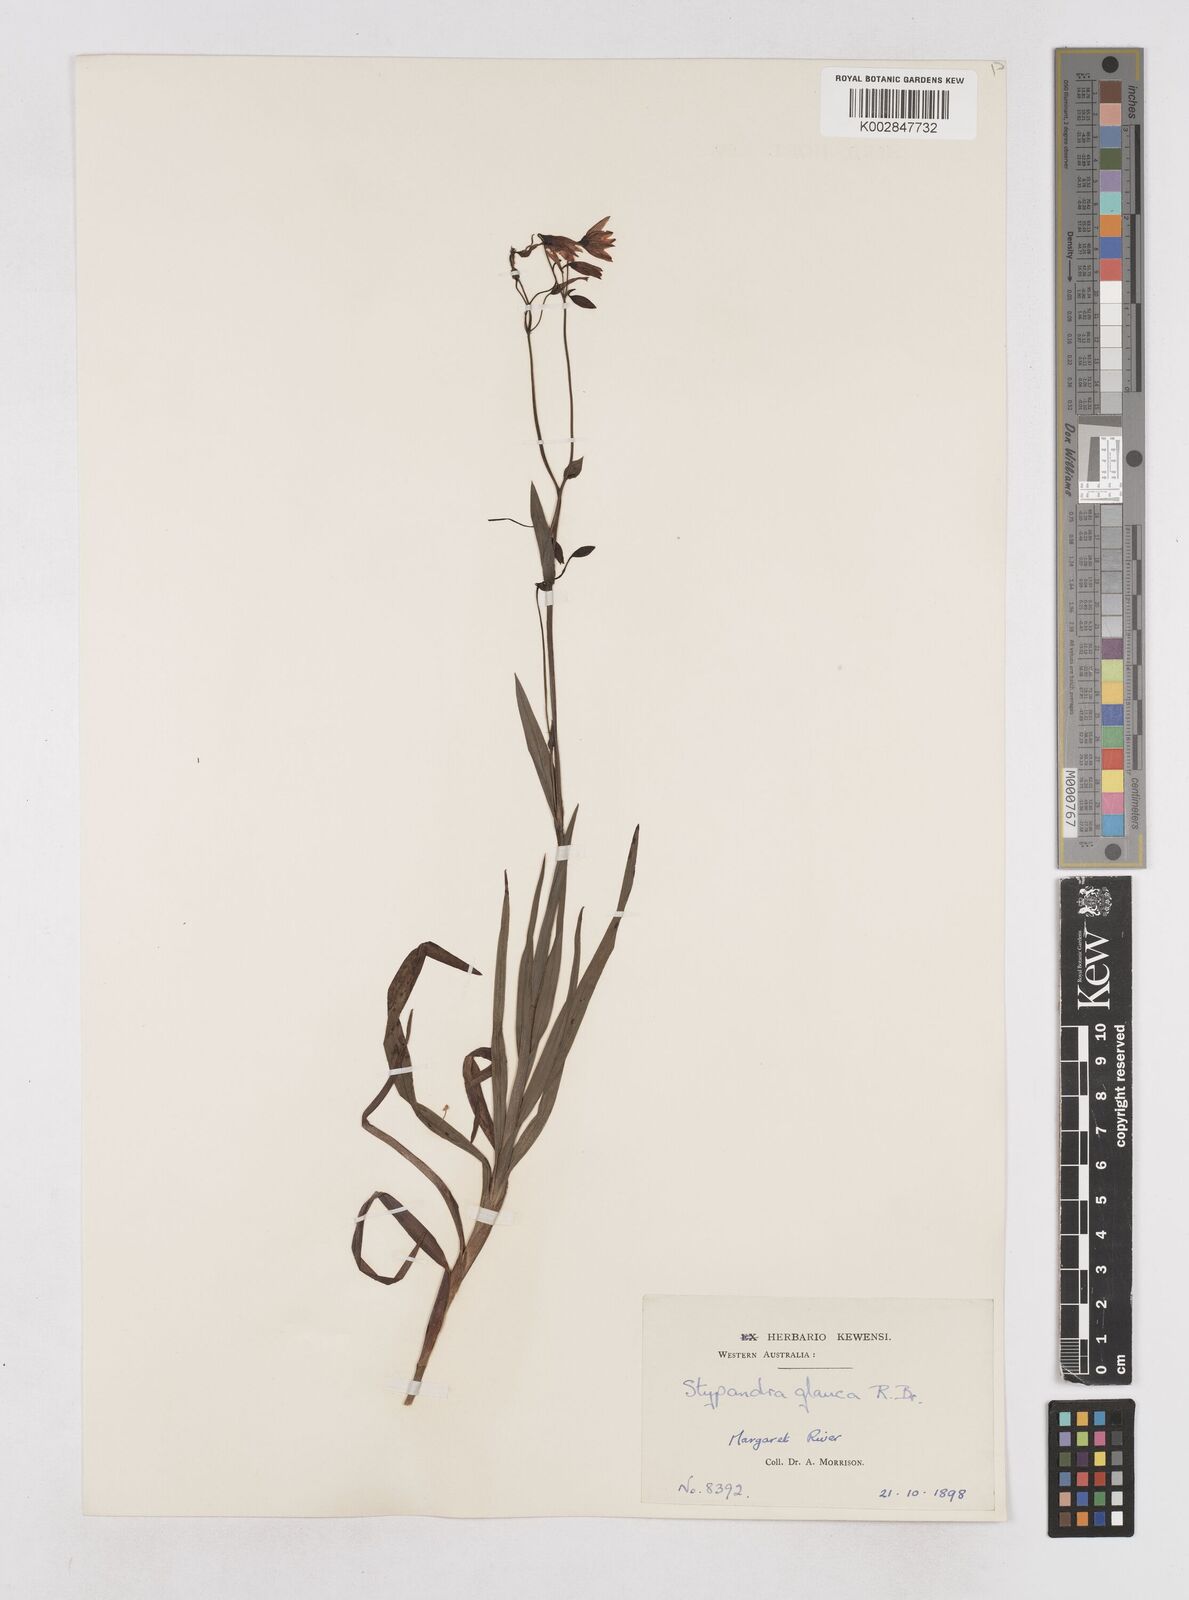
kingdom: Plantae
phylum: Tracheophyta
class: Liliopsida
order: Asparagales
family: Asphodelaceae
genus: Stypandra
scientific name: Stypandra glauca
